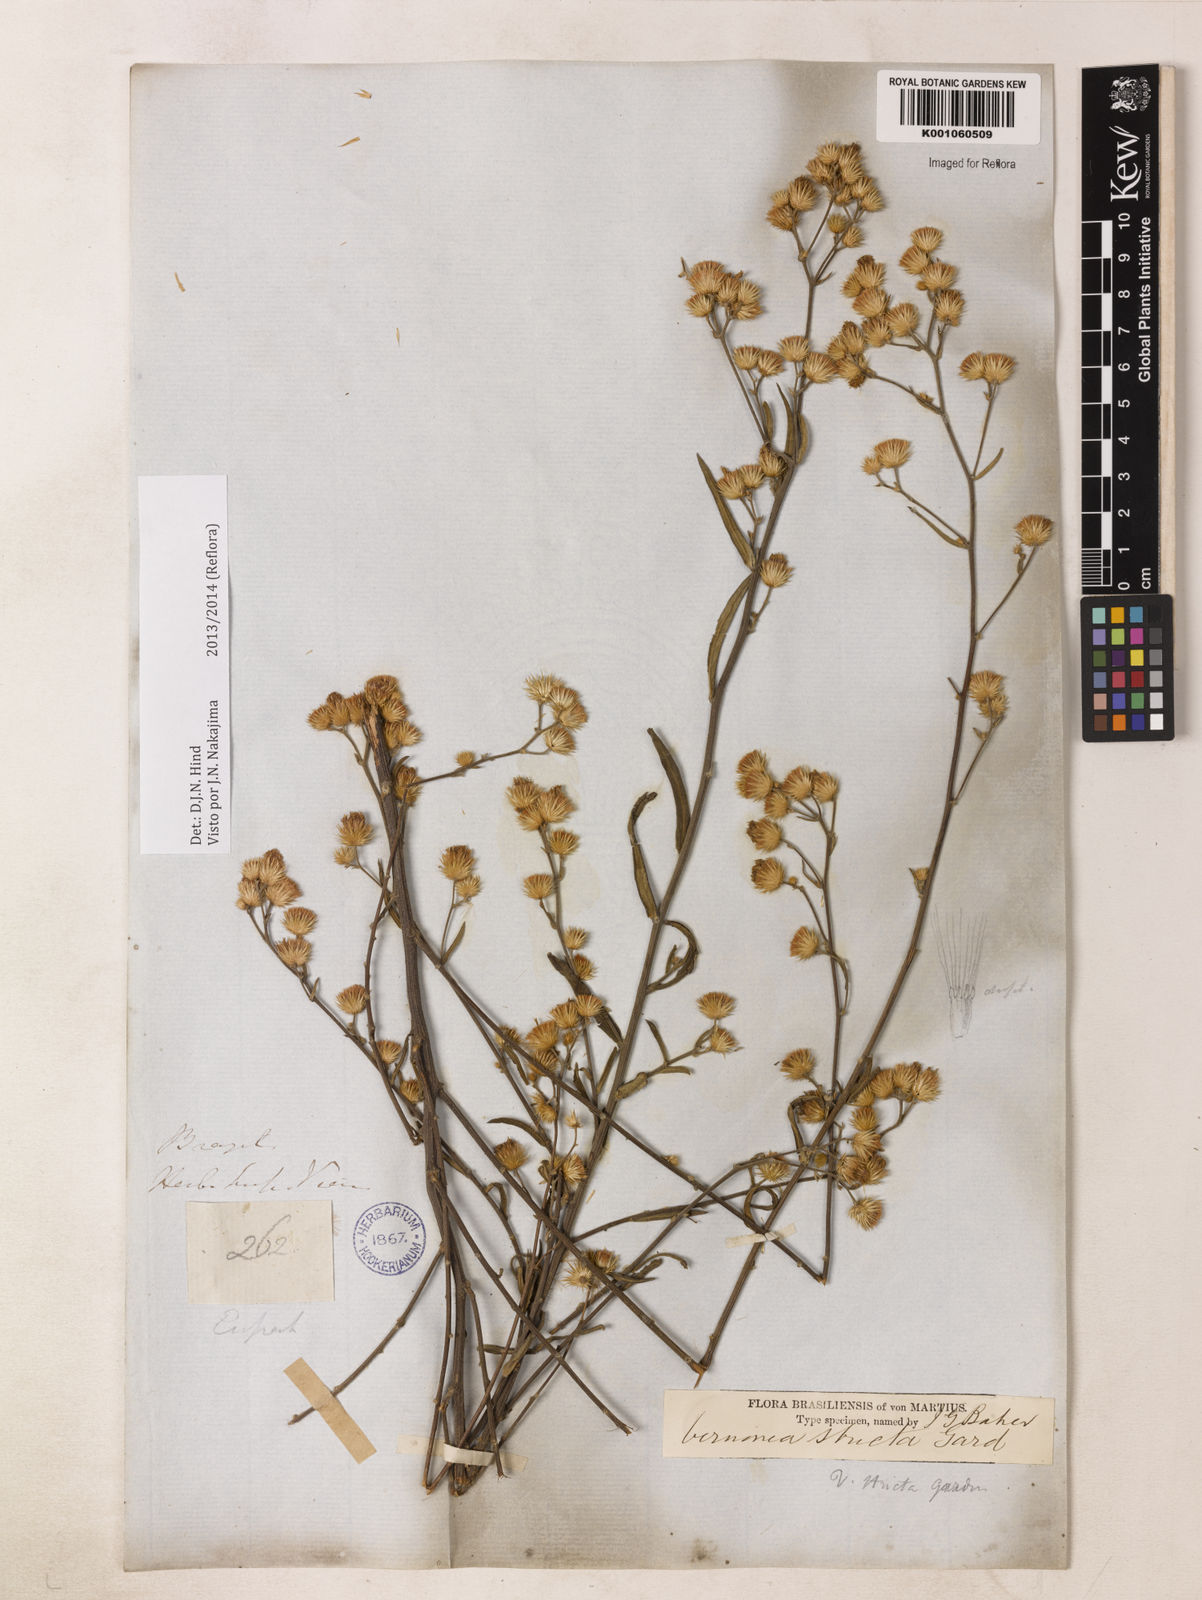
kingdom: Plantae
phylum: Tracheophyta
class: Magnoliopsida
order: Asterales
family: Asteraceae
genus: Echinocoryne
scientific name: Echinocoryne stricta
